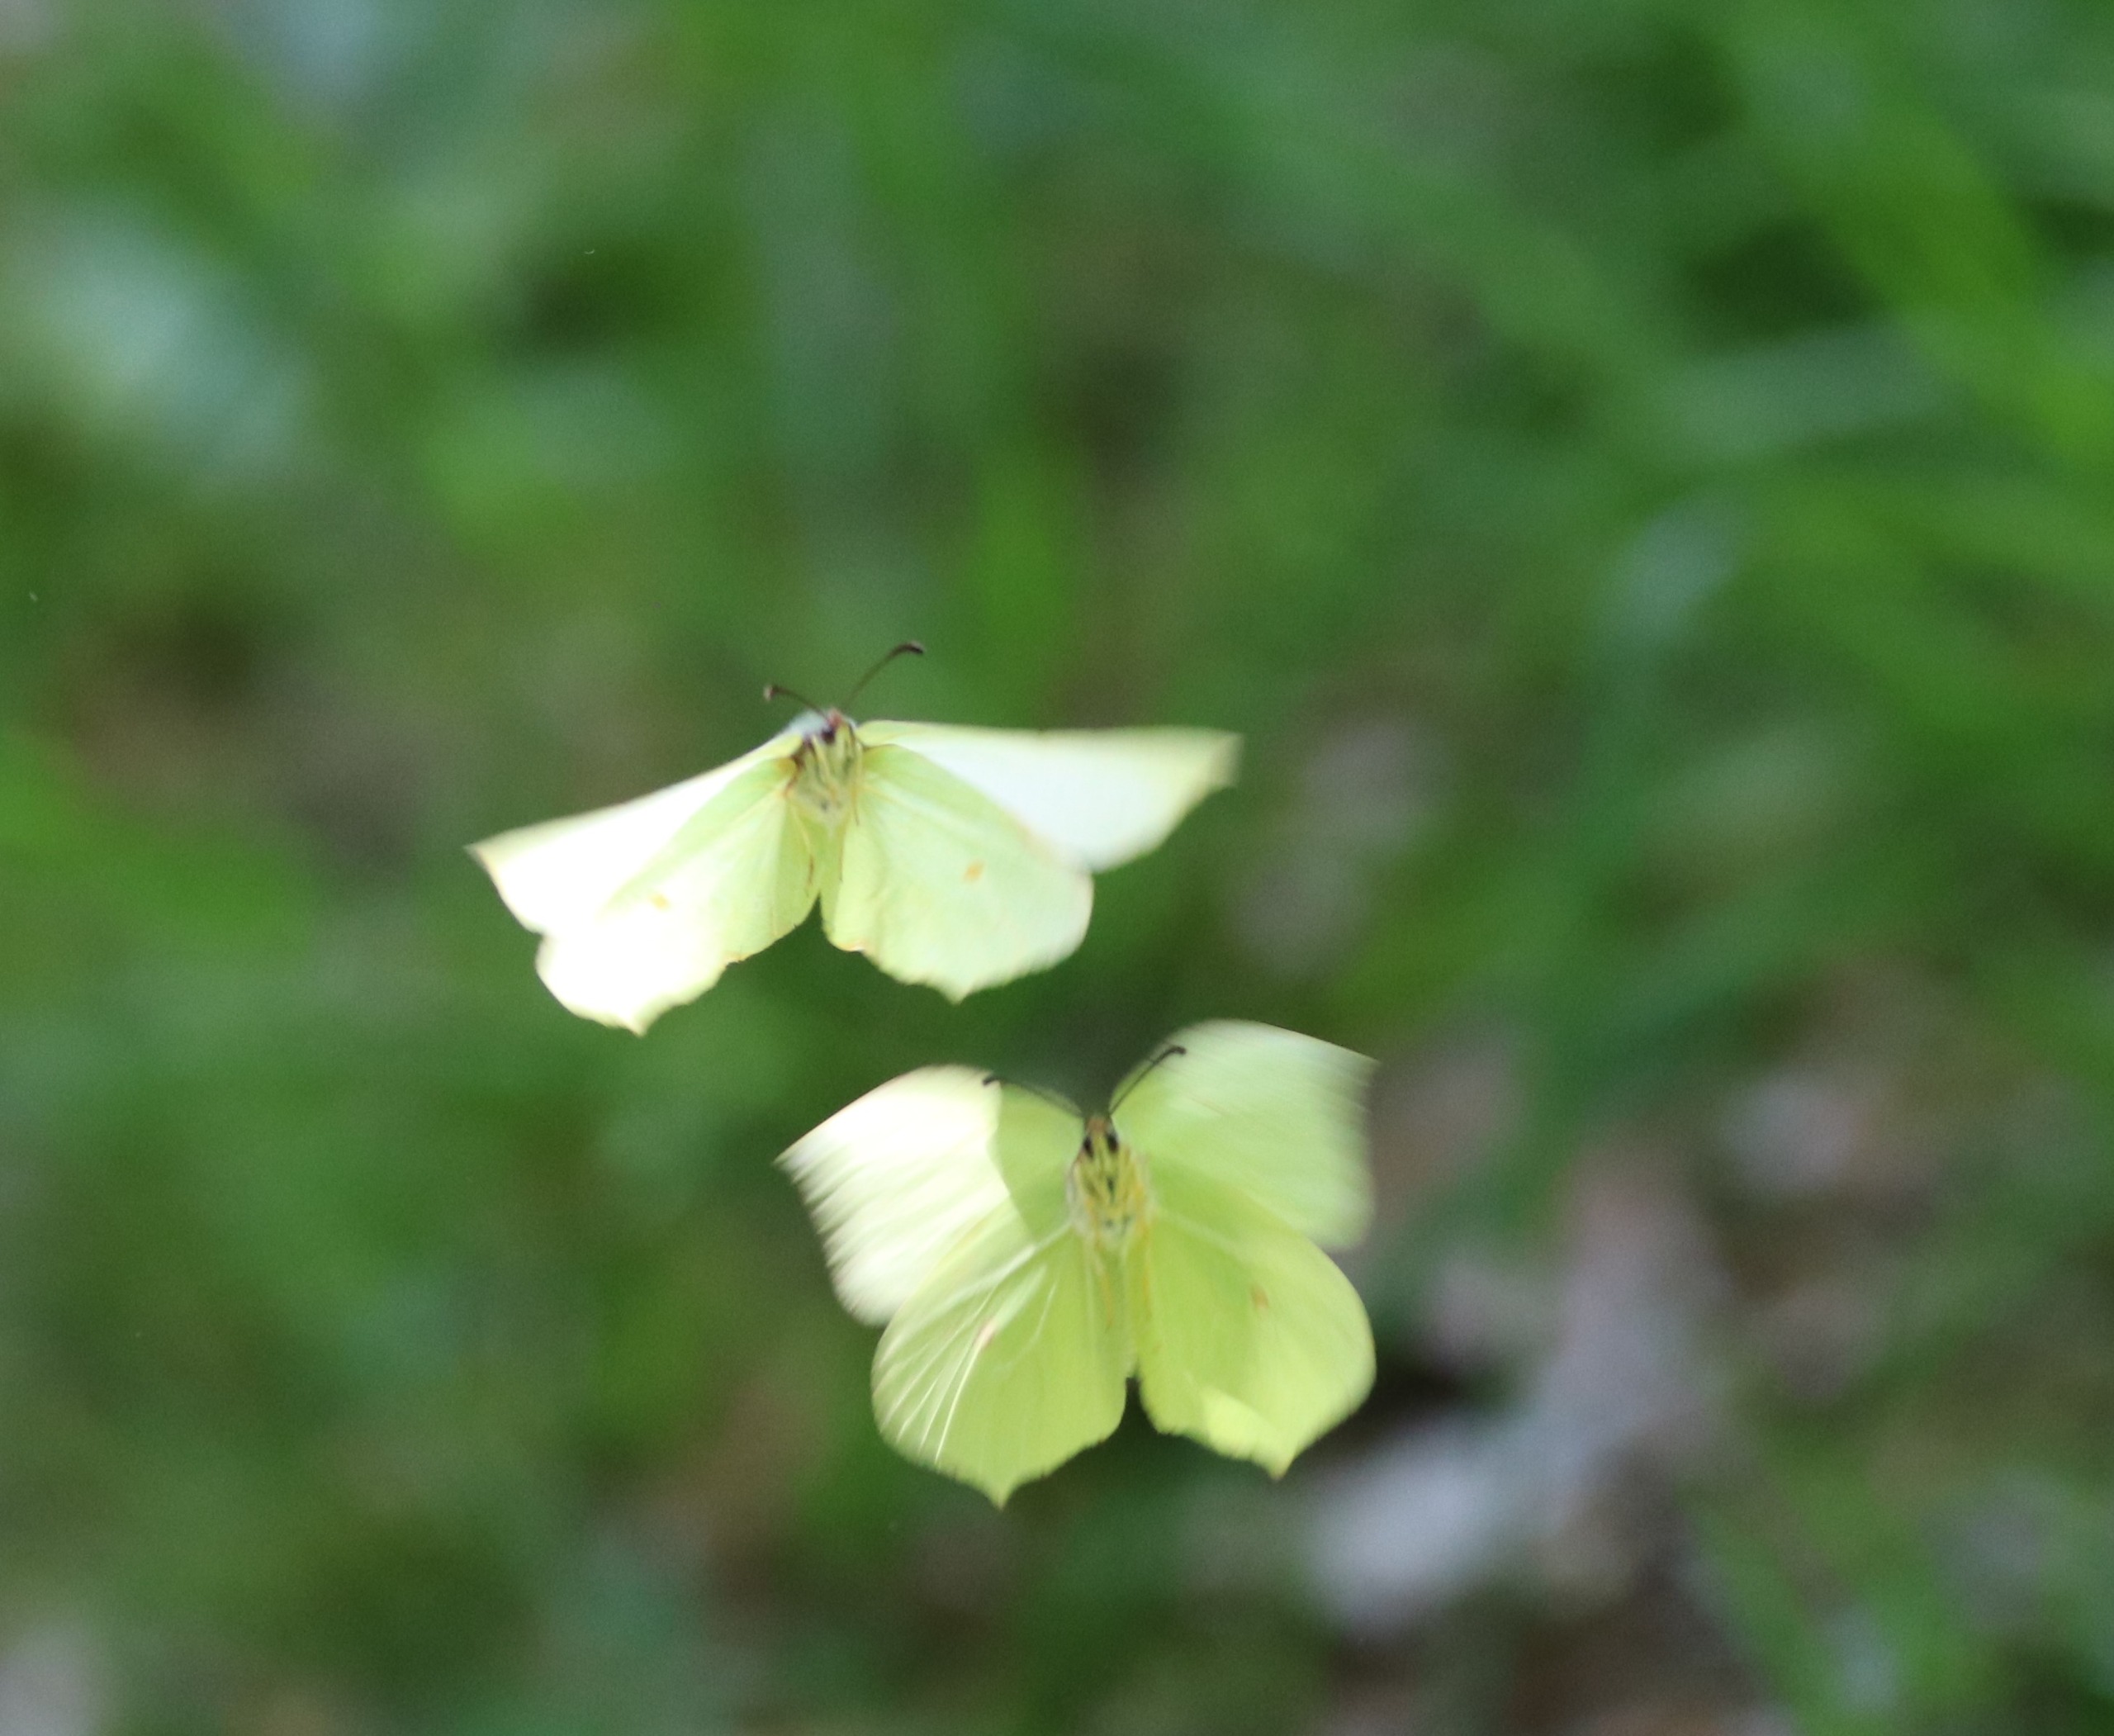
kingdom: Animalia
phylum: Arthropoda
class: Insecta
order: Lepidoptera
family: Pieridae
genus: Gonepteryx
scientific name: Gonepteryx rhamni
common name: Citronsommerfugl
